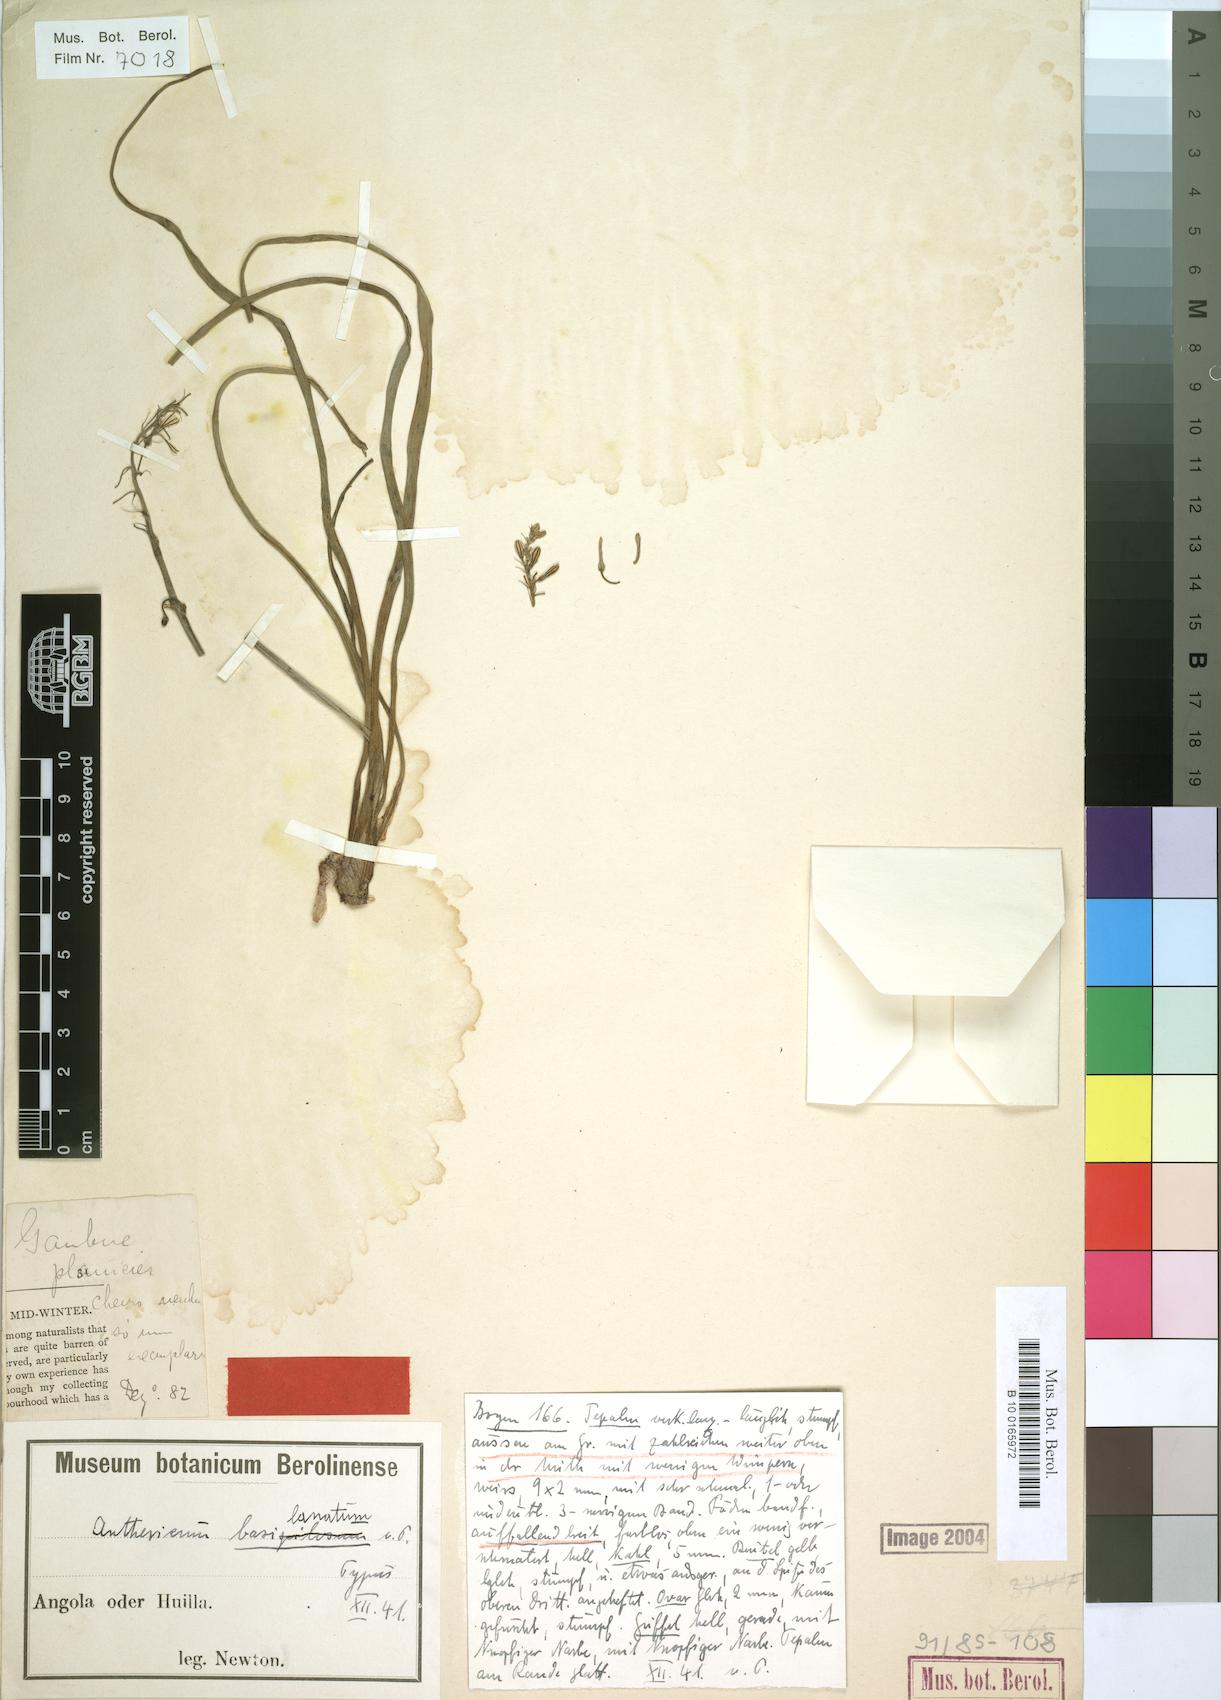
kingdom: Plantae
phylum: Tracheophyta
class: Liliopsida
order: Asparagales
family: Asparagaceae
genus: Anthericum
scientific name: Anthericum basilanatum
